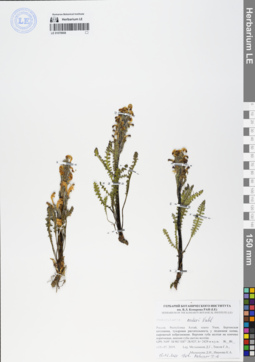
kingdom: Plantae
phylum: Tracheophyta
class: Magnoliopsida
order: Lamiales
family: Orobanchaceae
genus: Pedicularis
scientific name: Pedicularis oederi
